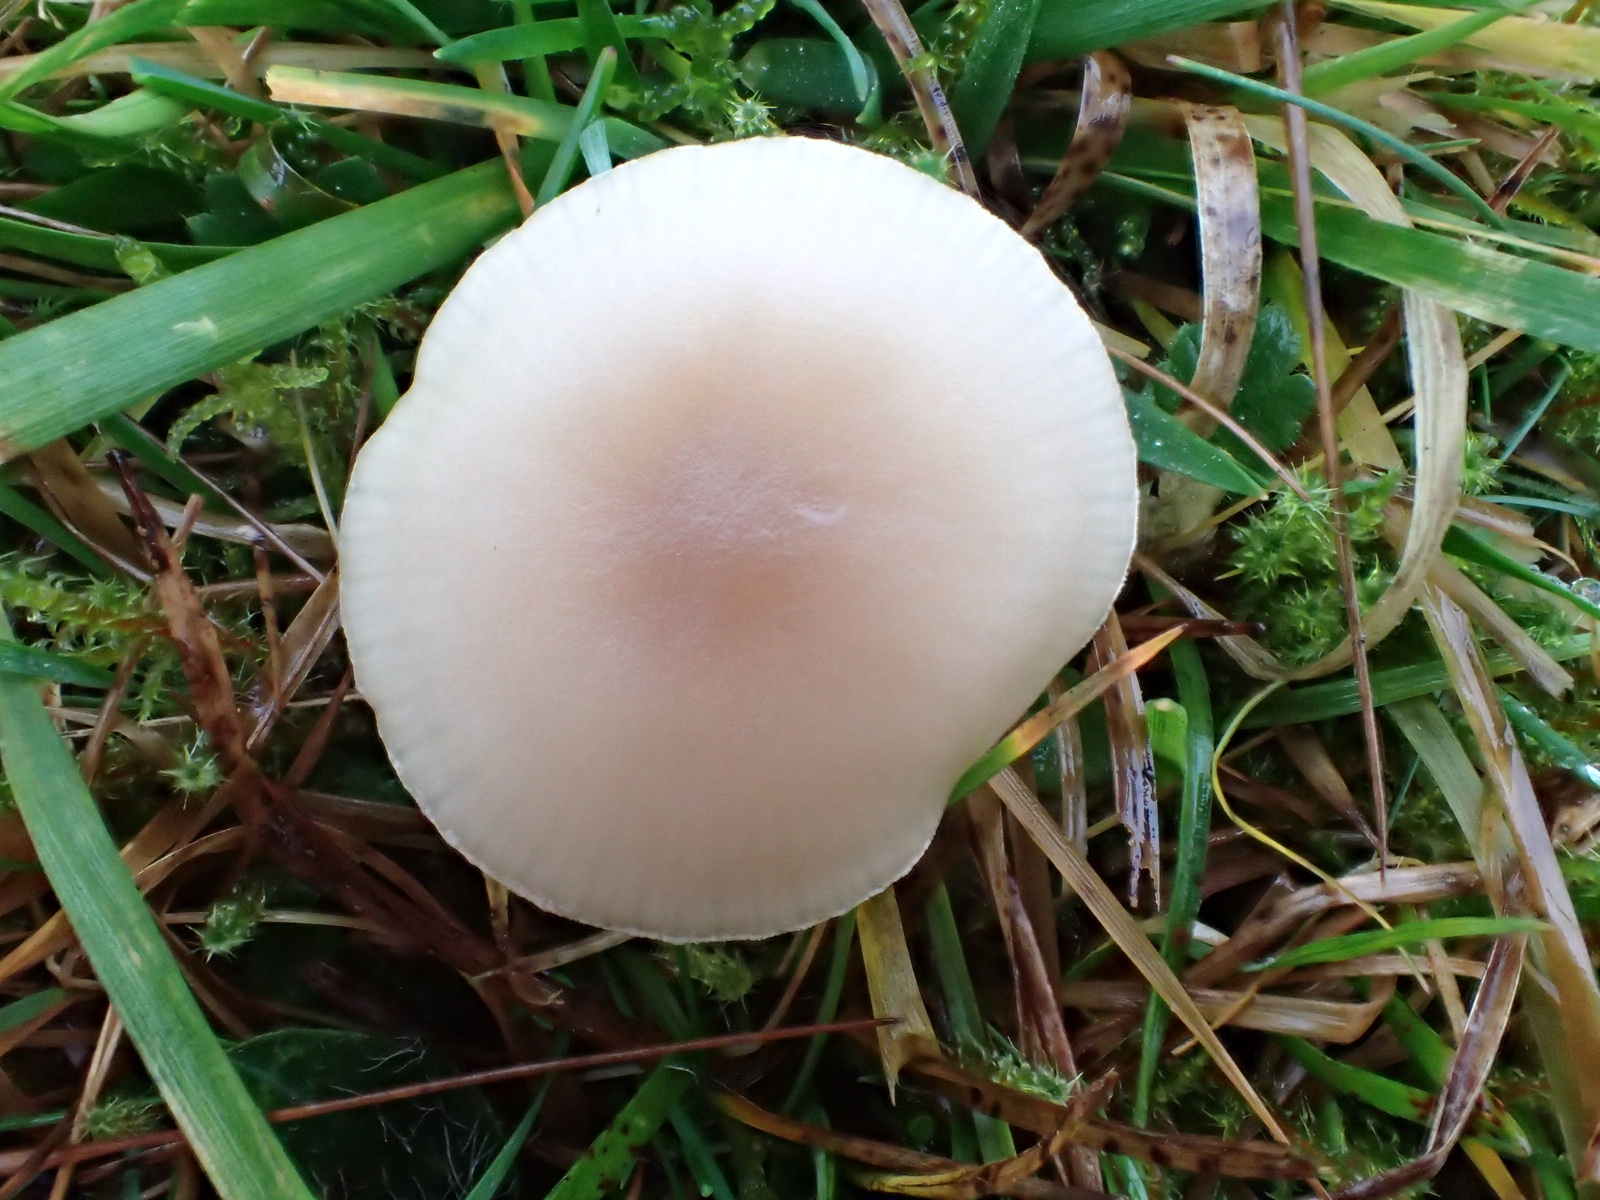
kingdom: Fungi
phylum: Basidiomycota
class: Agaricomycetes
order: Agaricales
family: Tricholomataceae
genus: Clitocybe
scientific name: Clitocybe
